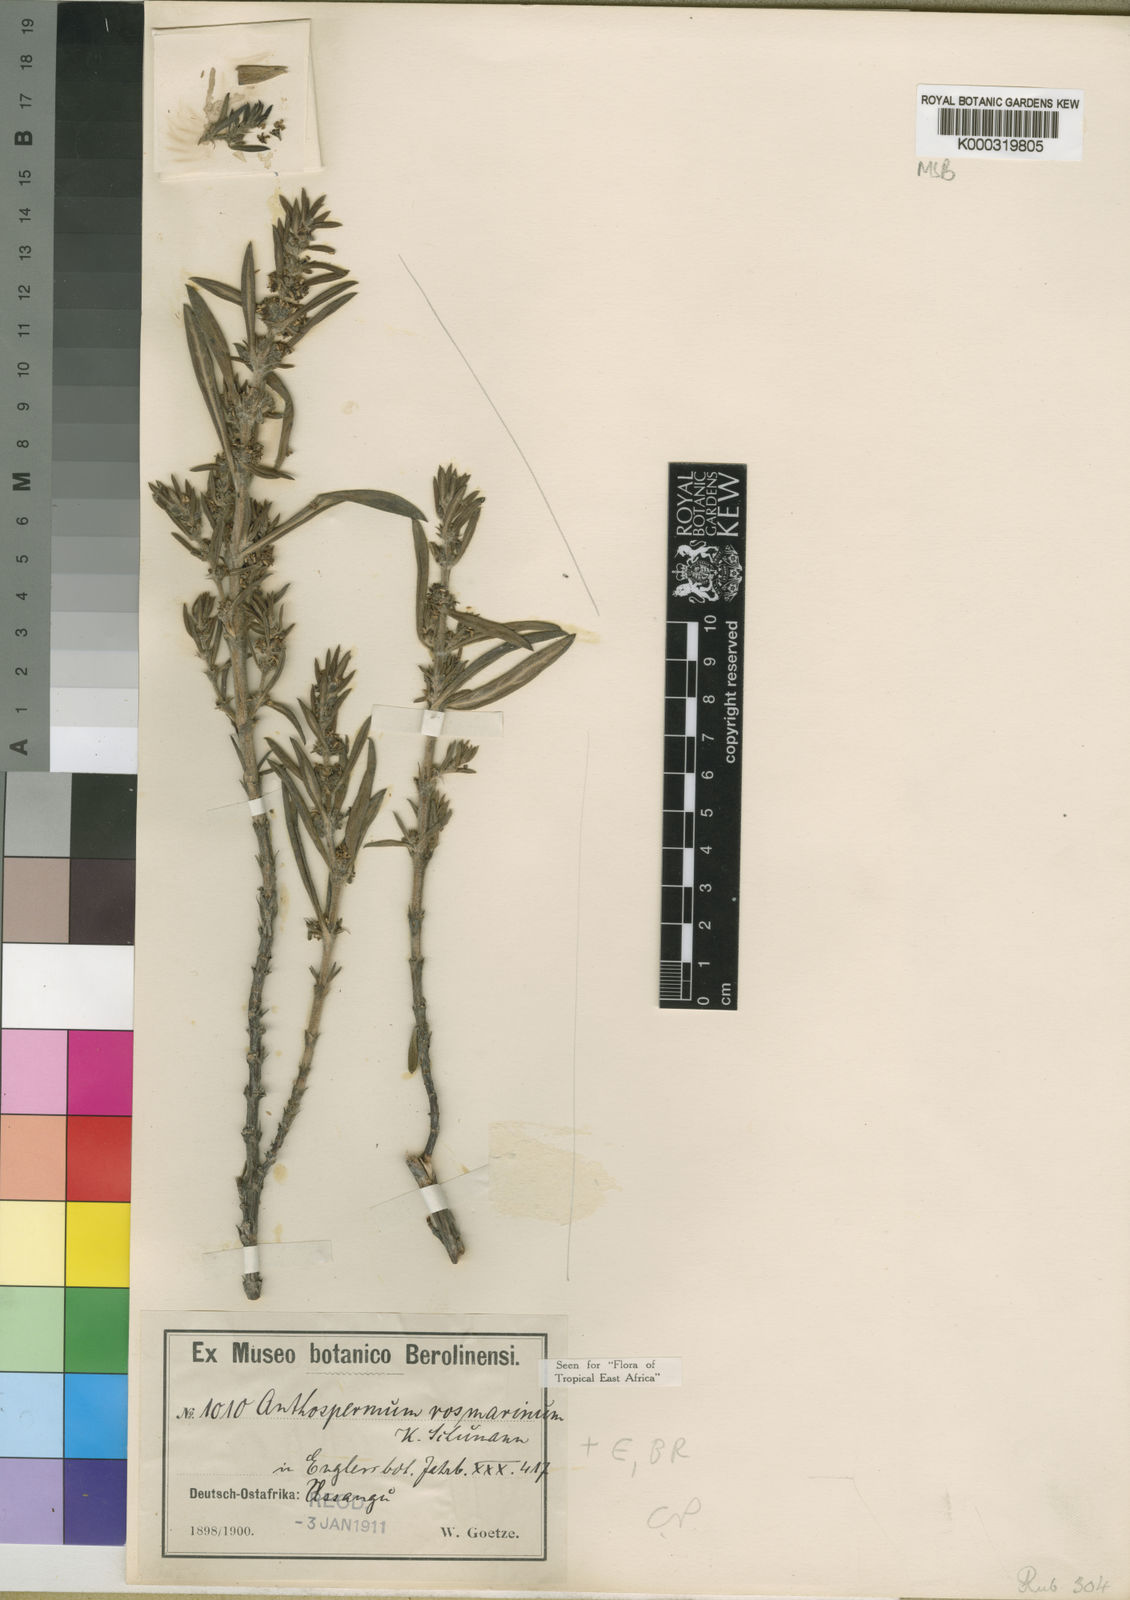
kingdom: Plantae
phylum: Tracheophyta
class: Magnoliopsida
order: Gentianales
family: Rubiaceae
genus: Anthospermum
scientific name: Anthospermum rosmarinus
